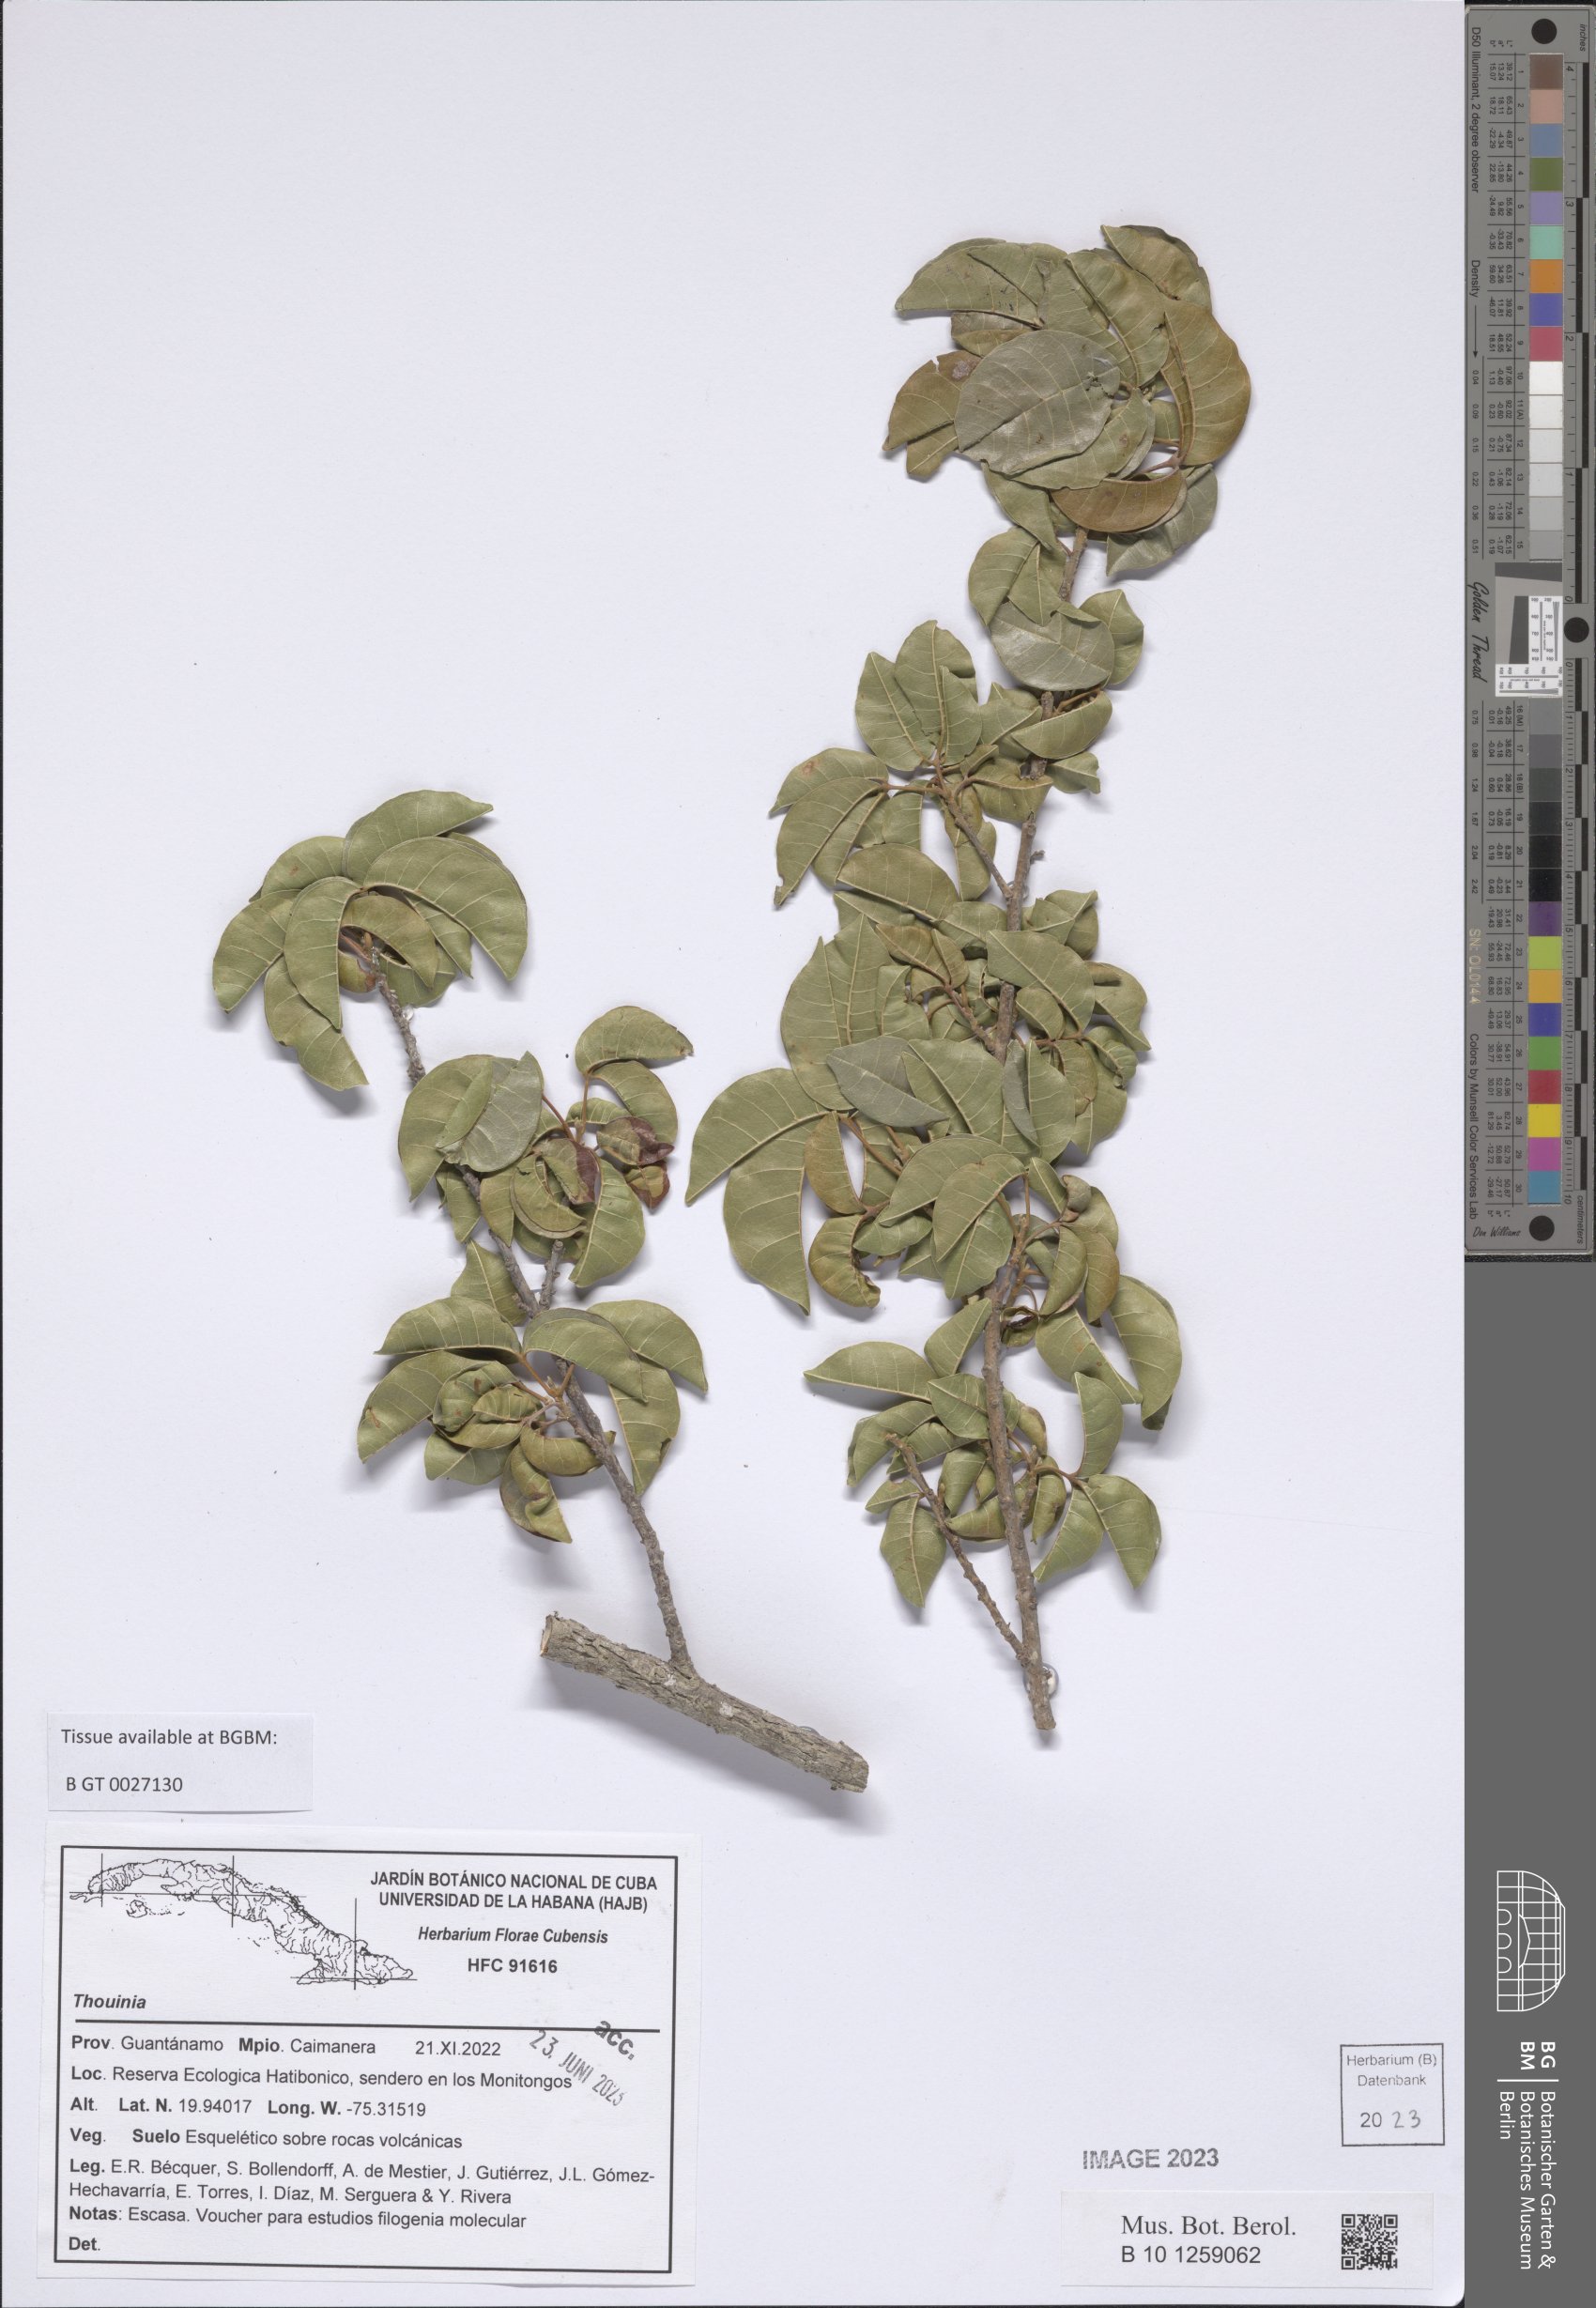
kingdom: Plantae
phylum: Tracheophyta
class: Magnoliopsida
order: Sapindales
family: Sapindaceae
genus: Thouinia
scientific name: Thouinia
